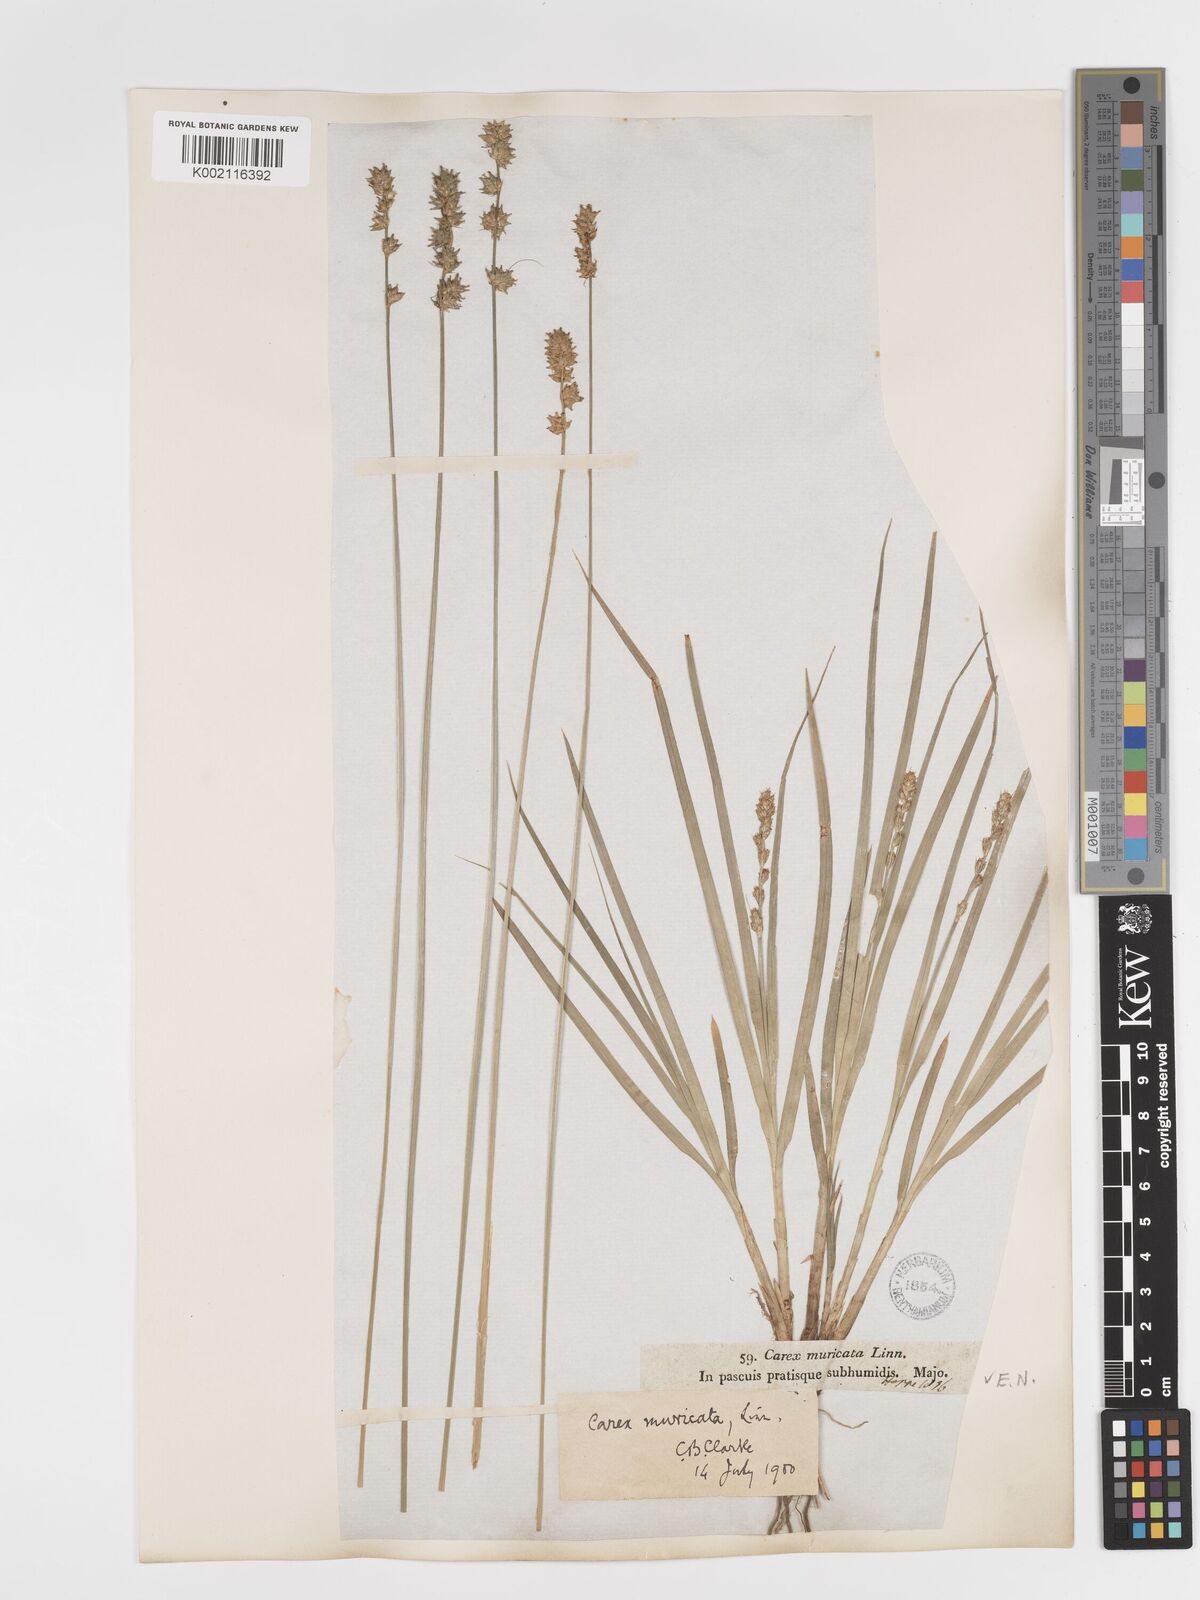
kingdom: Plantae
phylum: Tracheophyta
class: Liliopsida
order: Poales
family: Cyperaceae
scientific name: Cyperaceae
